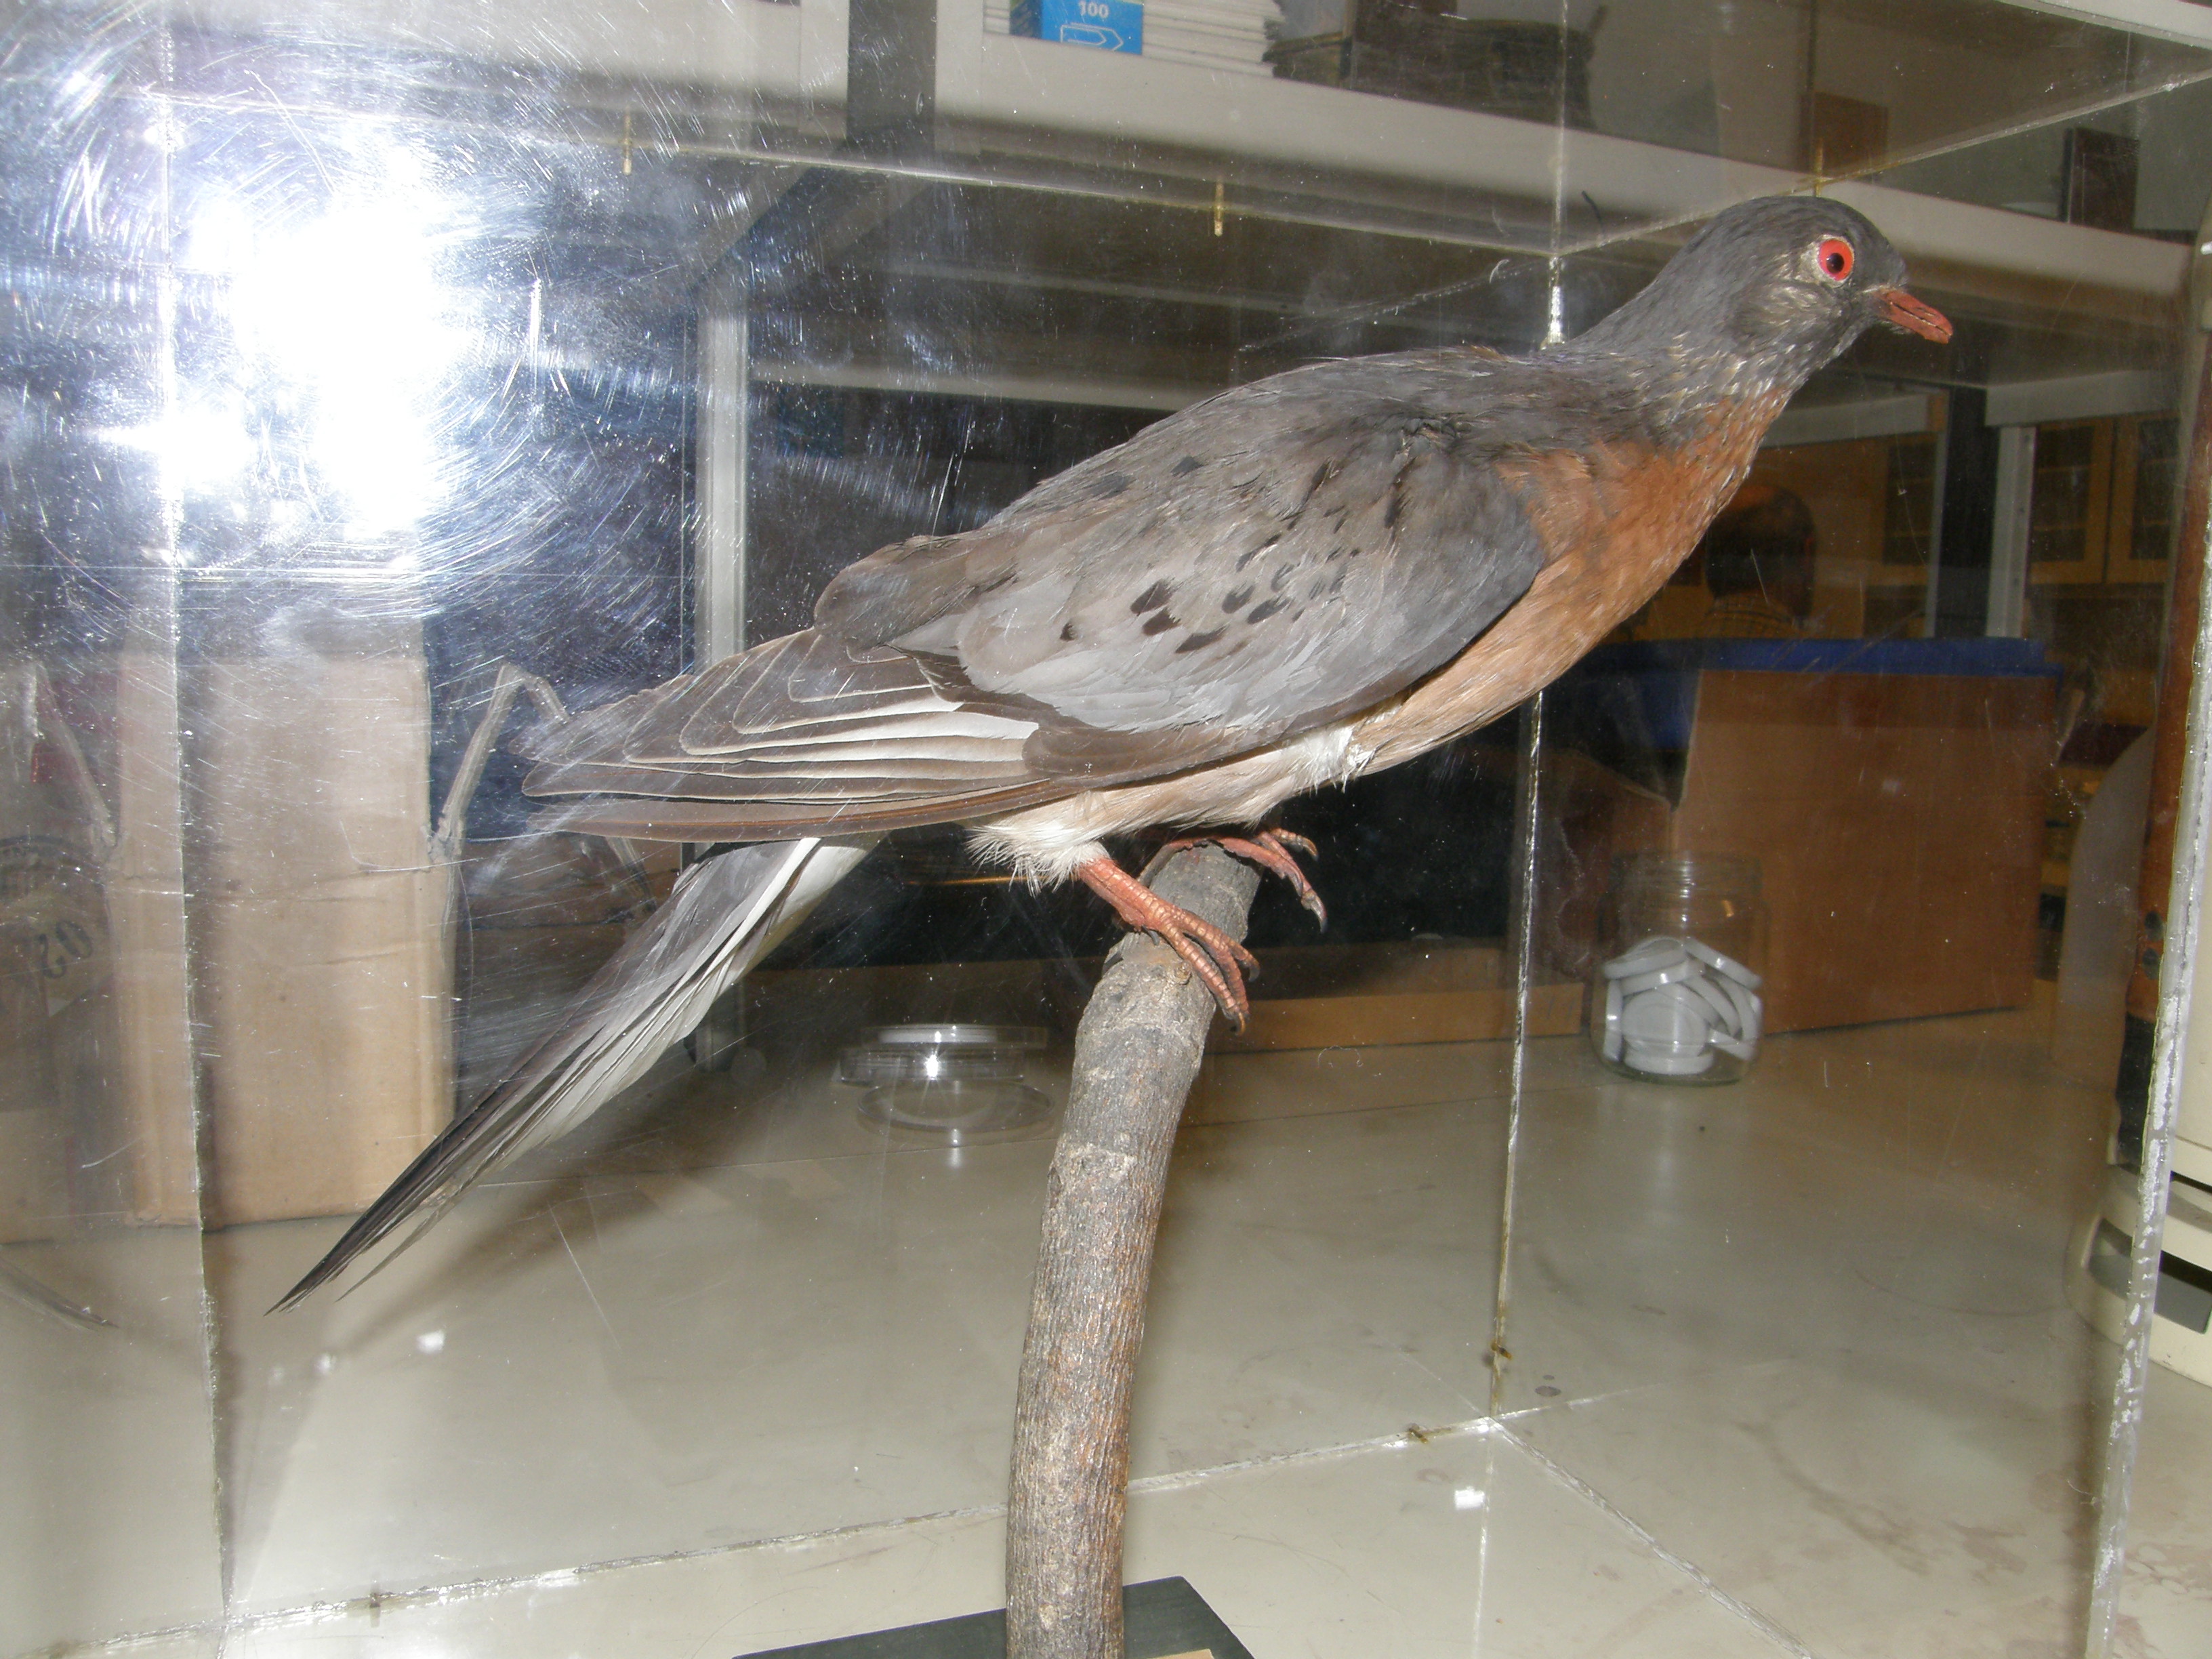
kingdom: Animalia
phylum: Chordata
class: Aves
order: Columbiformes
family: Columbidae
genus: Ectopistes
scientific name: Ectopistes migratorius
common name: Passenger pigeon
